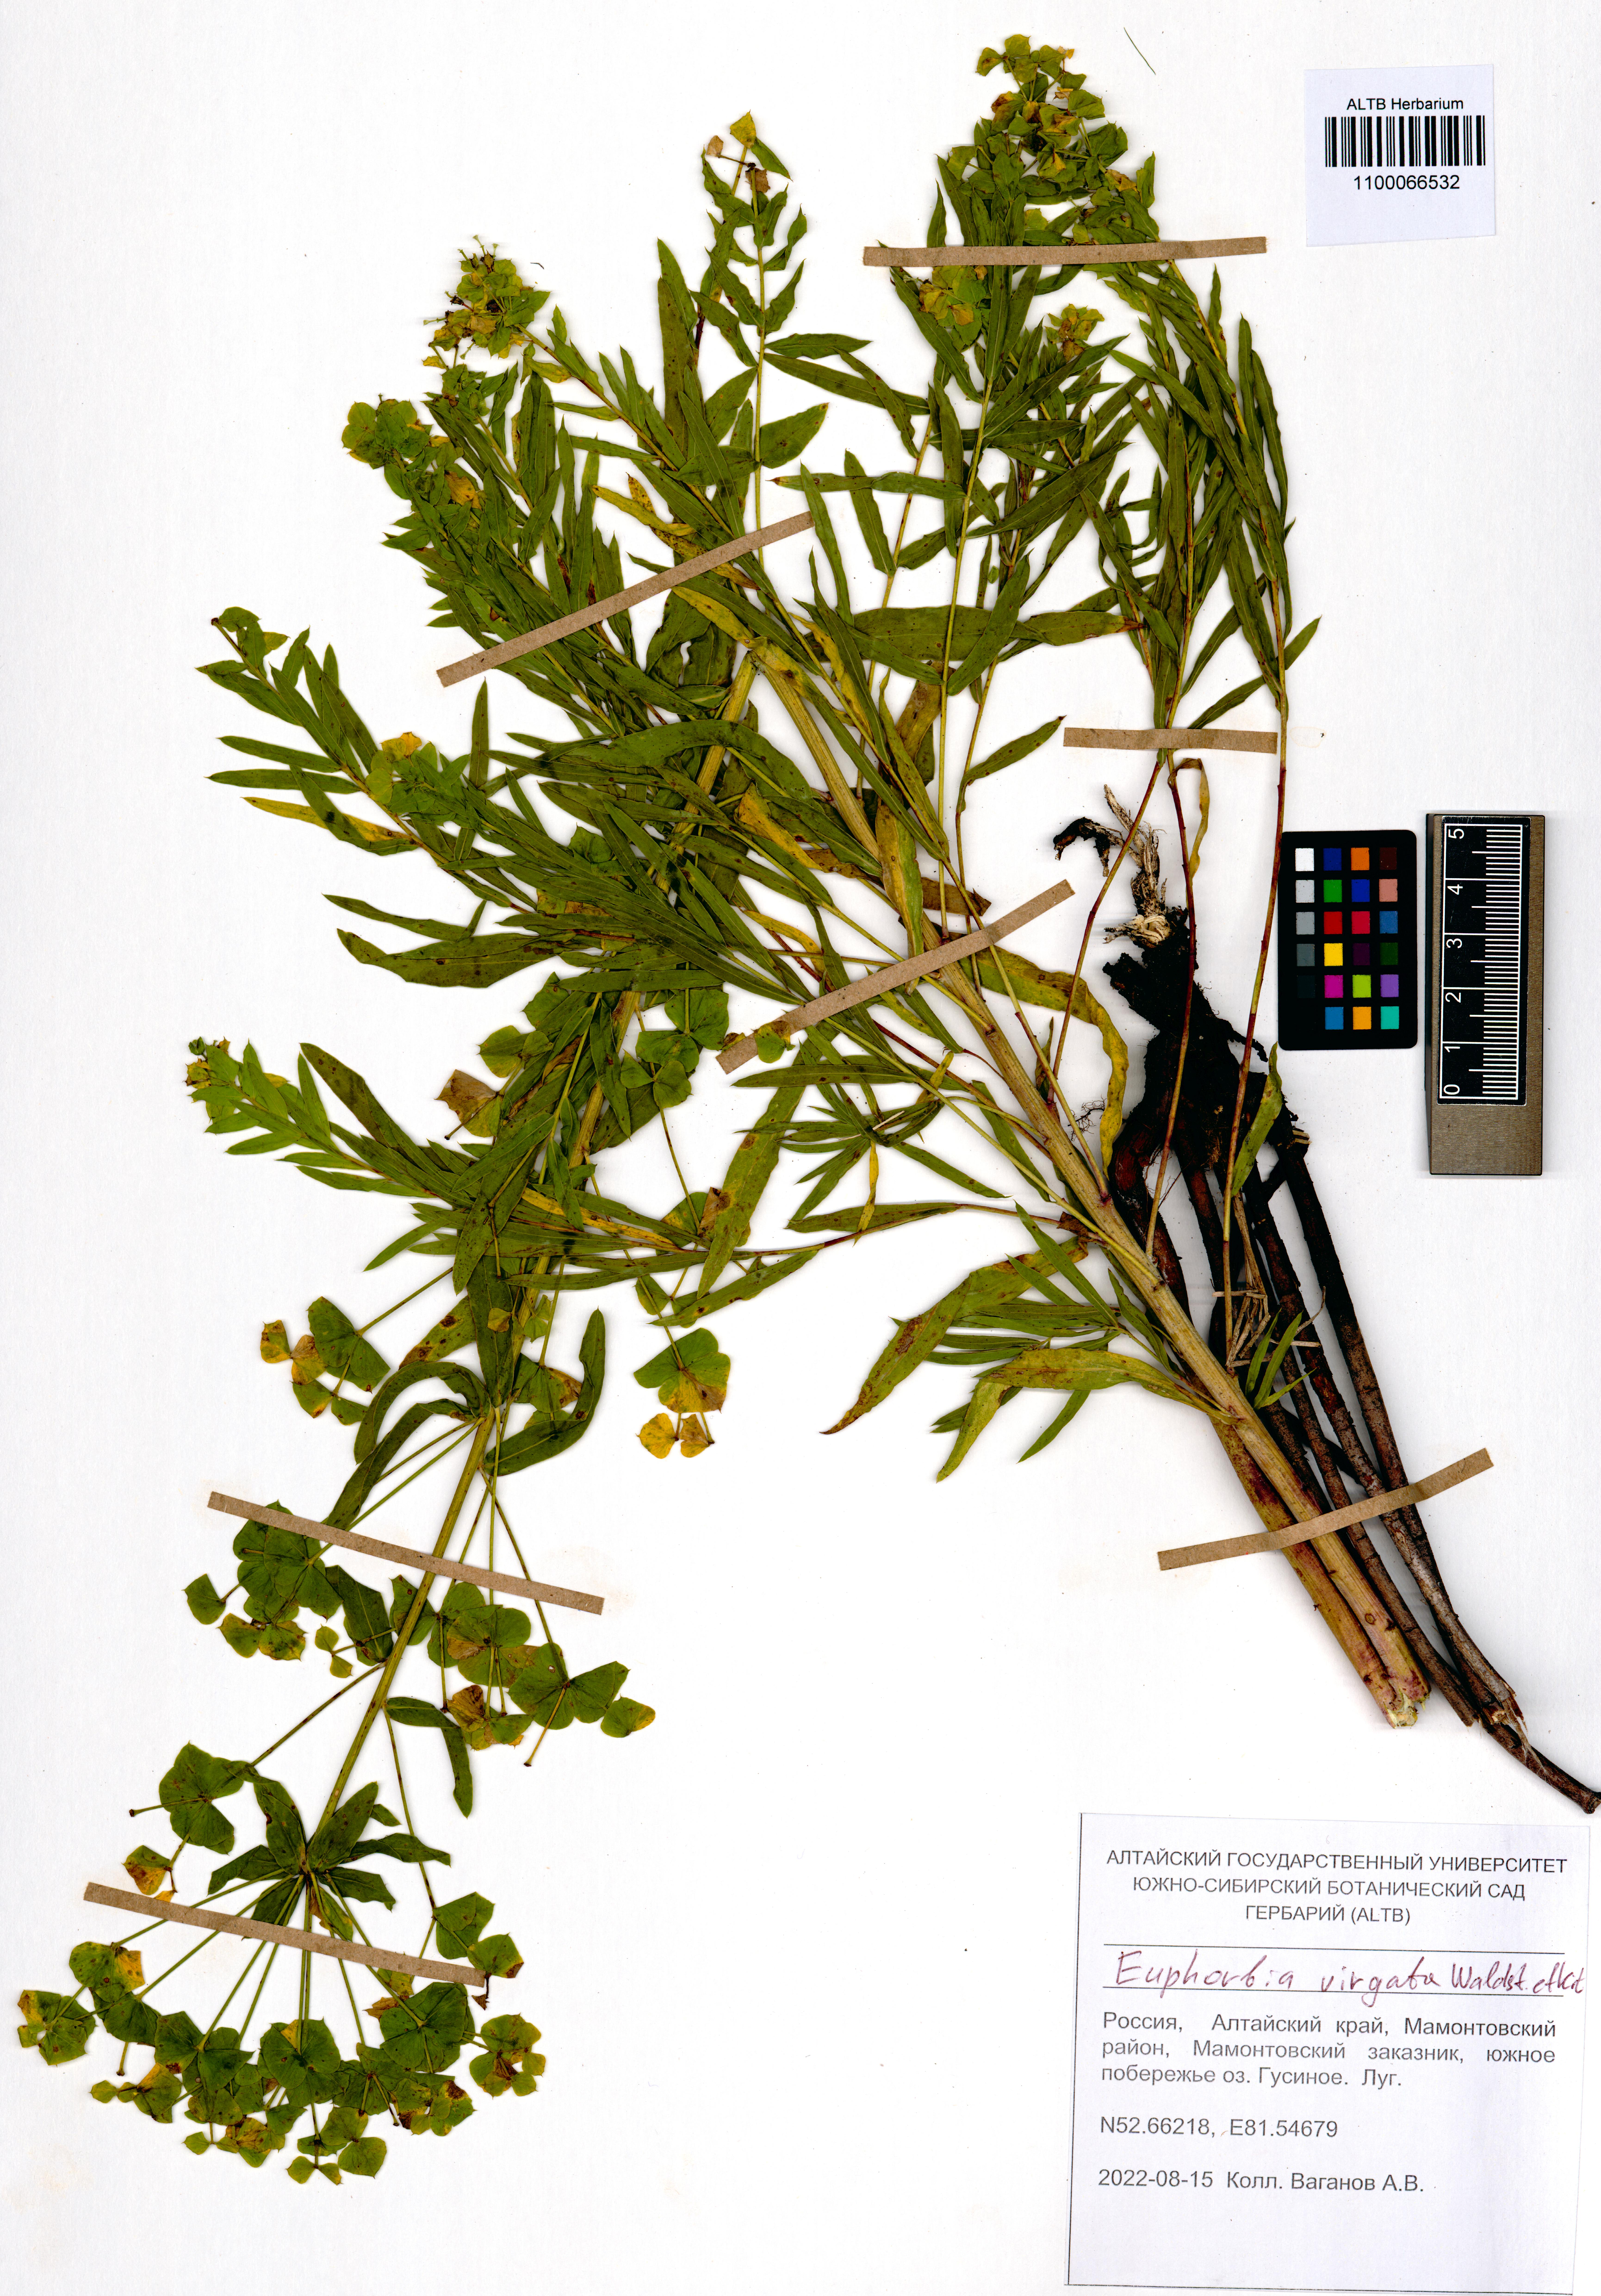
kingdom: Plantae
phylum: Tracheophyta
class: Magnoliopsida
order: Malpighiales
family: Euphorbiaceae
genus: Euphorbia
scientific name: Euphorbia virgata
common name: Leafy spurge
